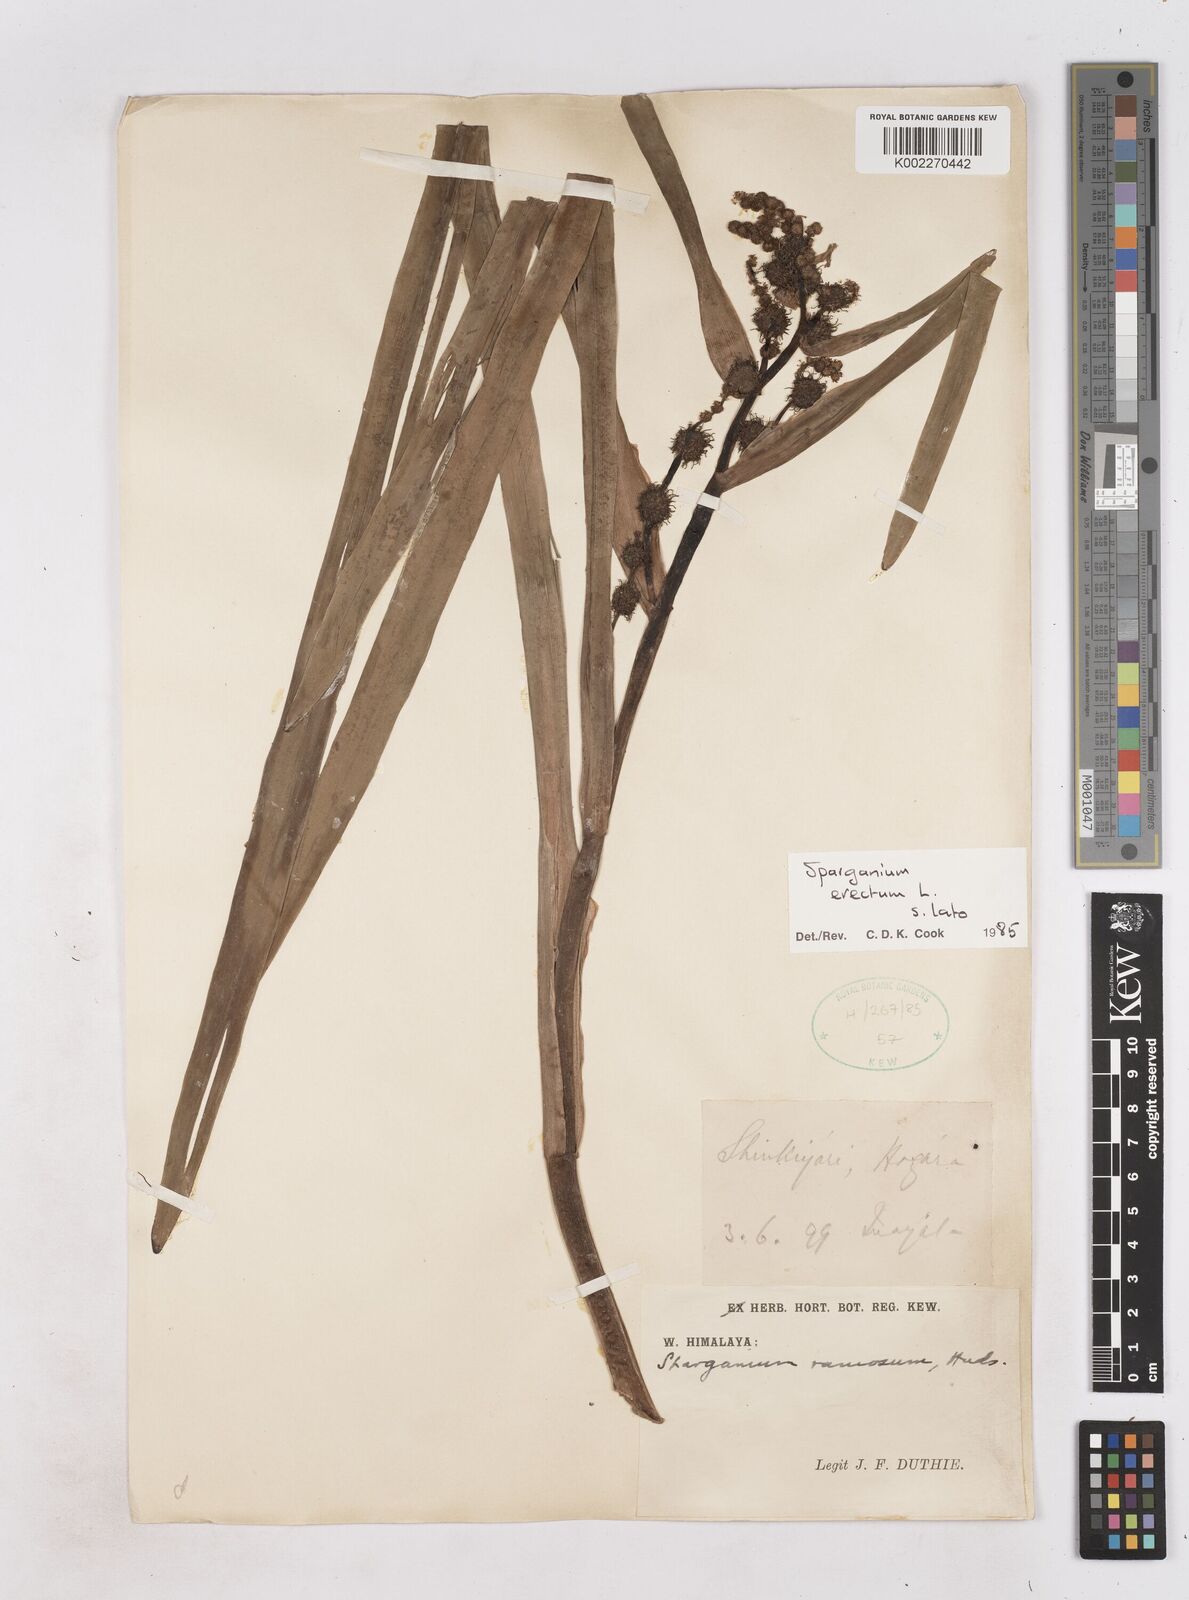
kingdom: Plantae
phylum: Tracheophyta
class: Liliopsida
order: Poales
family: Typhaceae
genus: Sparganium
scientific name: Sparganium erectum
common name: Branched bur-reed
